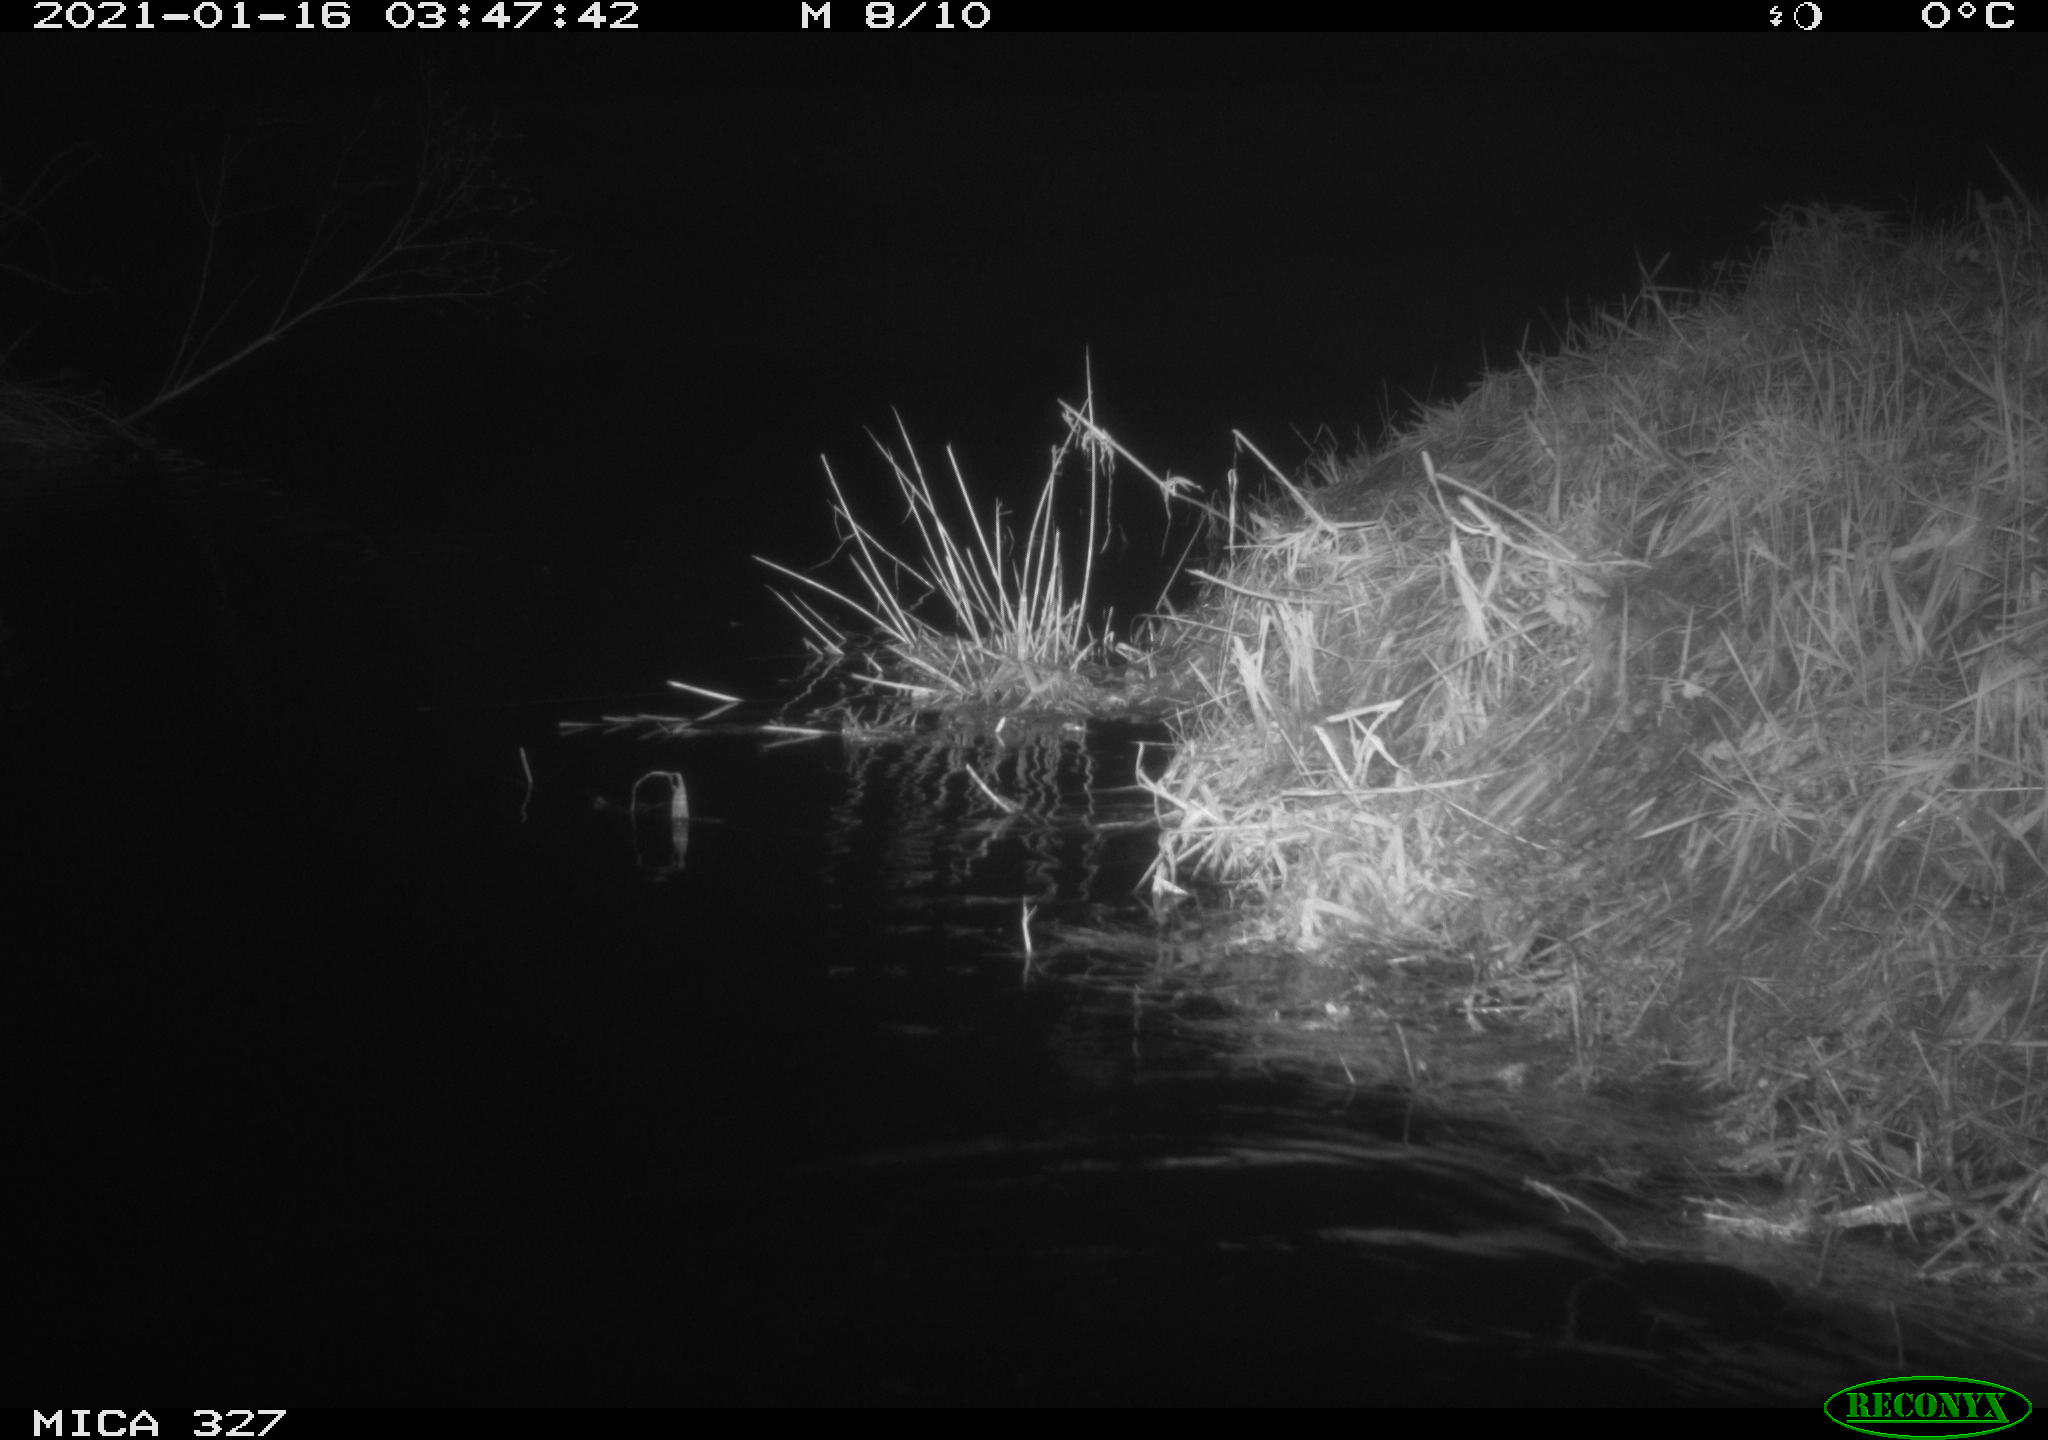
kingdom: Animalia
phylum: Chordata
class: Mammalia
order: Rodentia
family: Cricetidae
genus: Ondatra
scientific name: Ondatra zibethicus
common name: Muskrat
